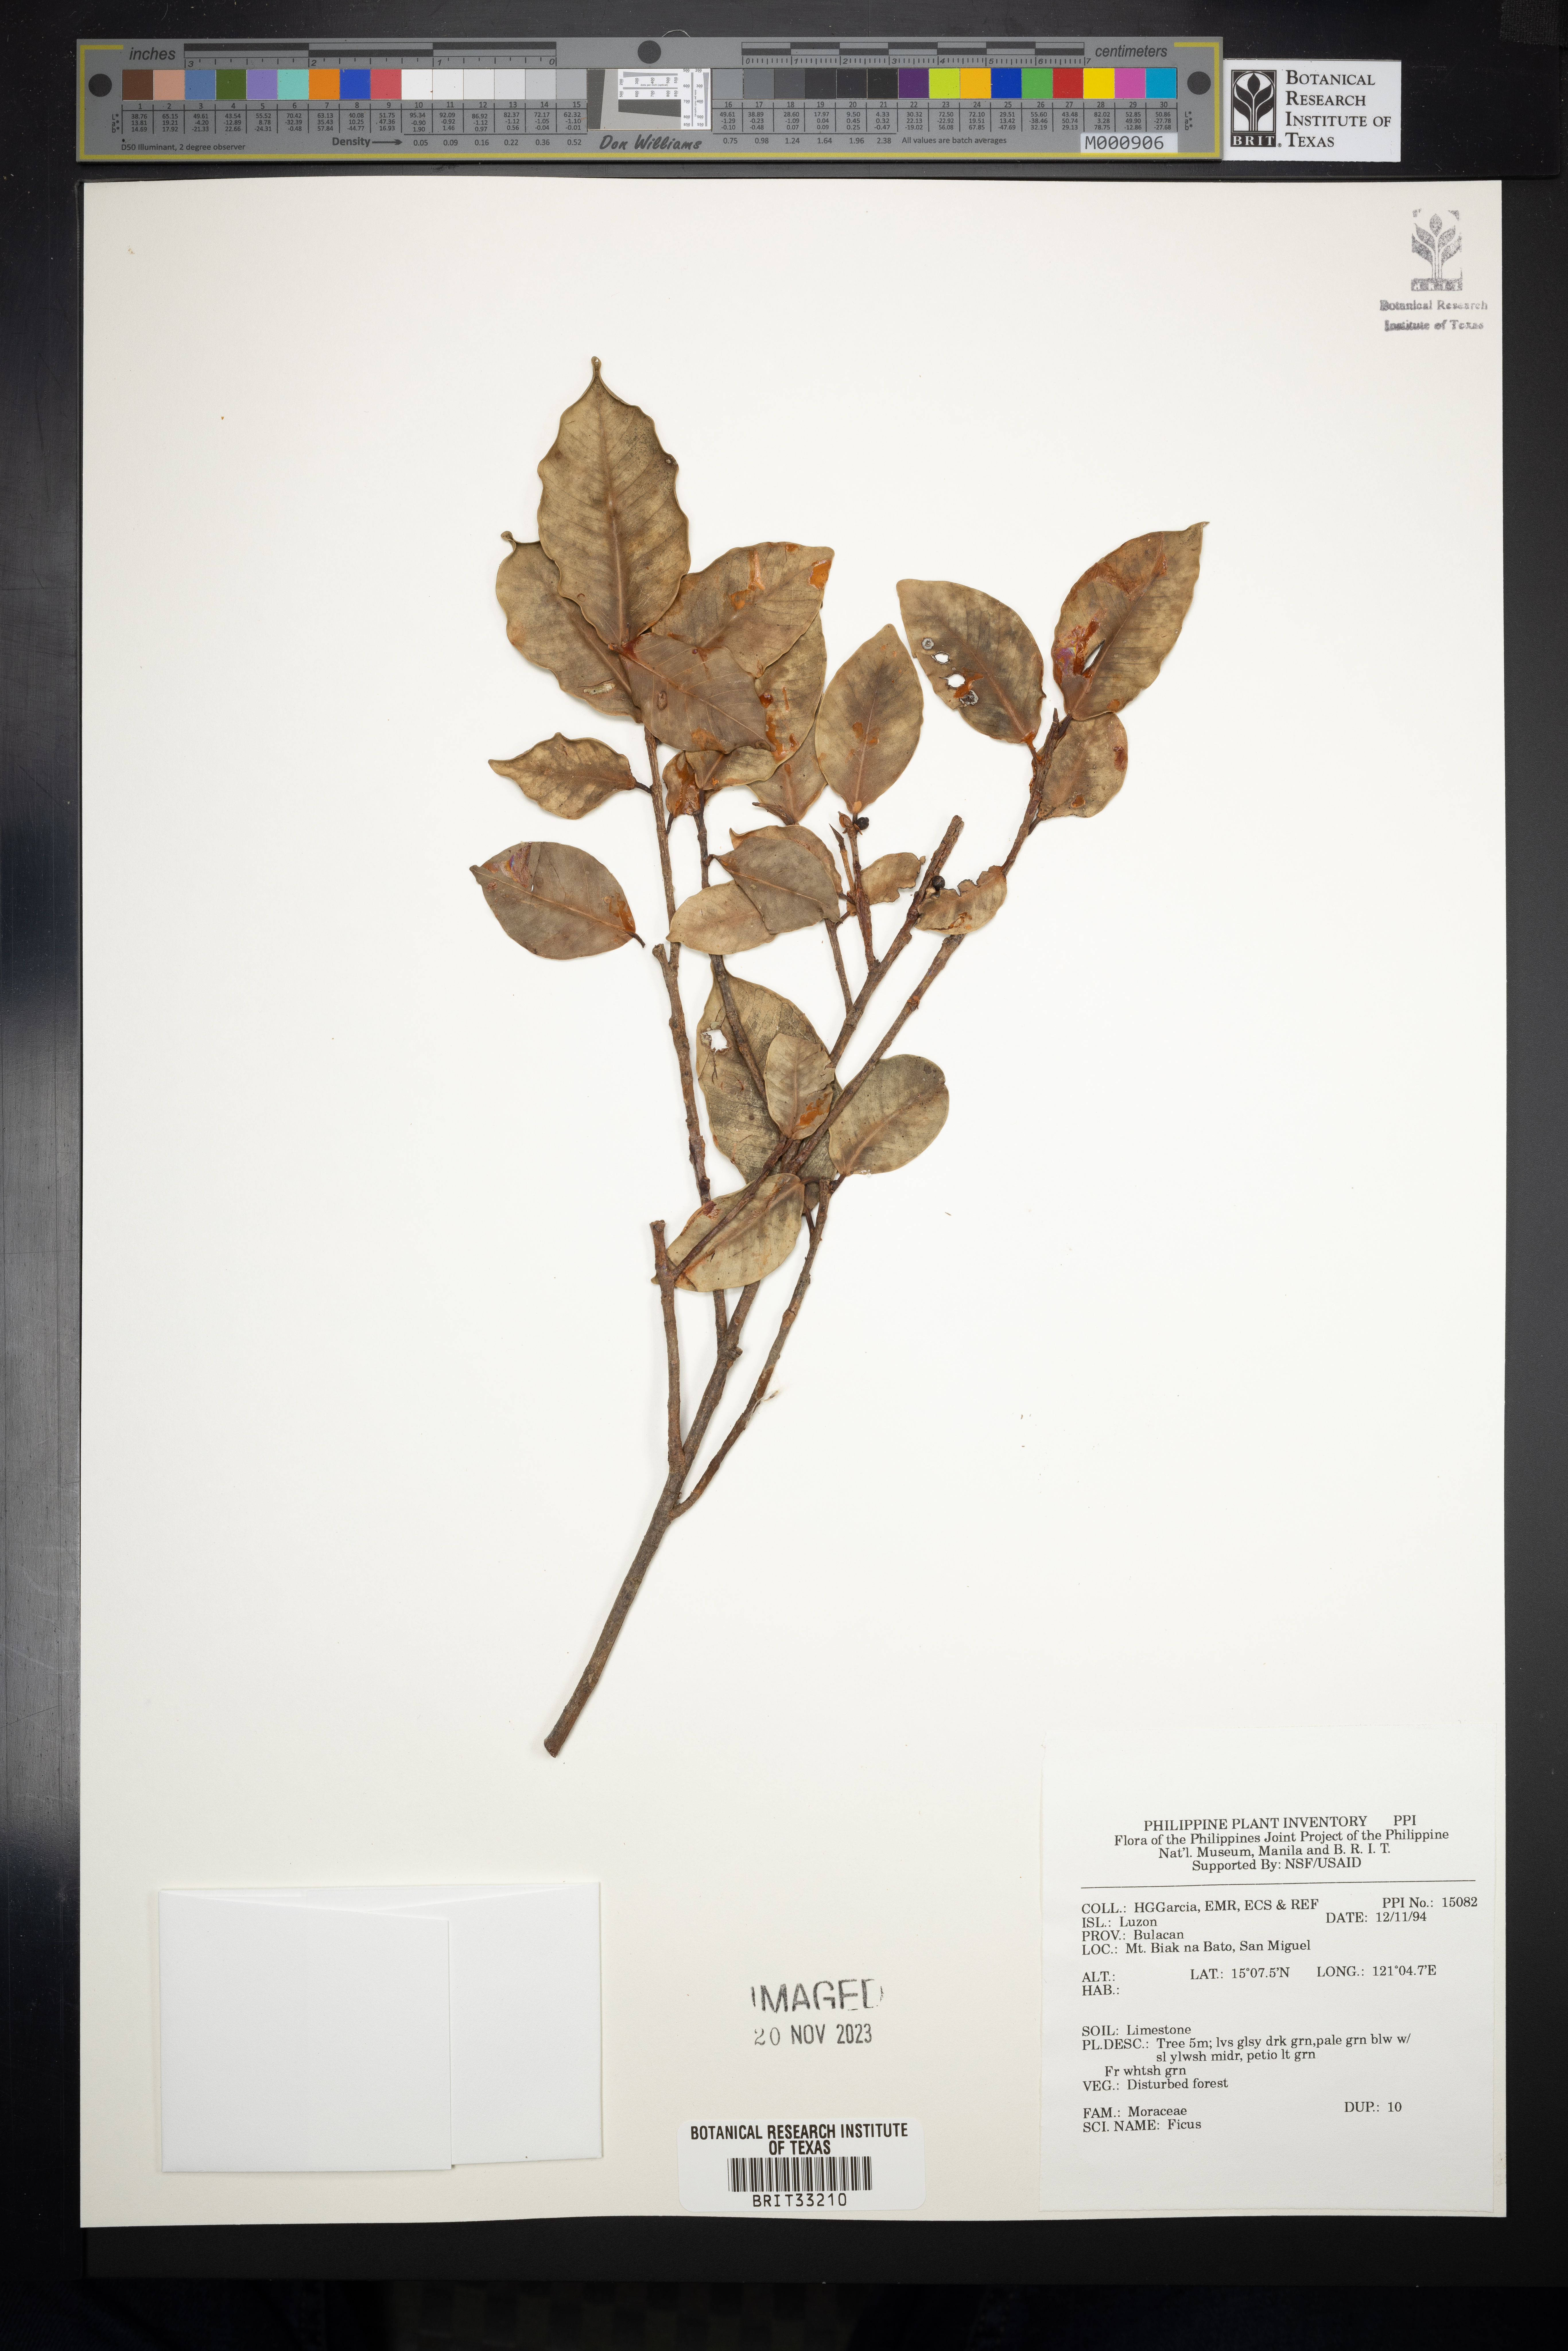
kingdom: Plantae
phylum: Tracheophyta
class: Magnoliopsida
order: Rosales
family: Moraceae
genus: Ficus
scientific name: Ficus
